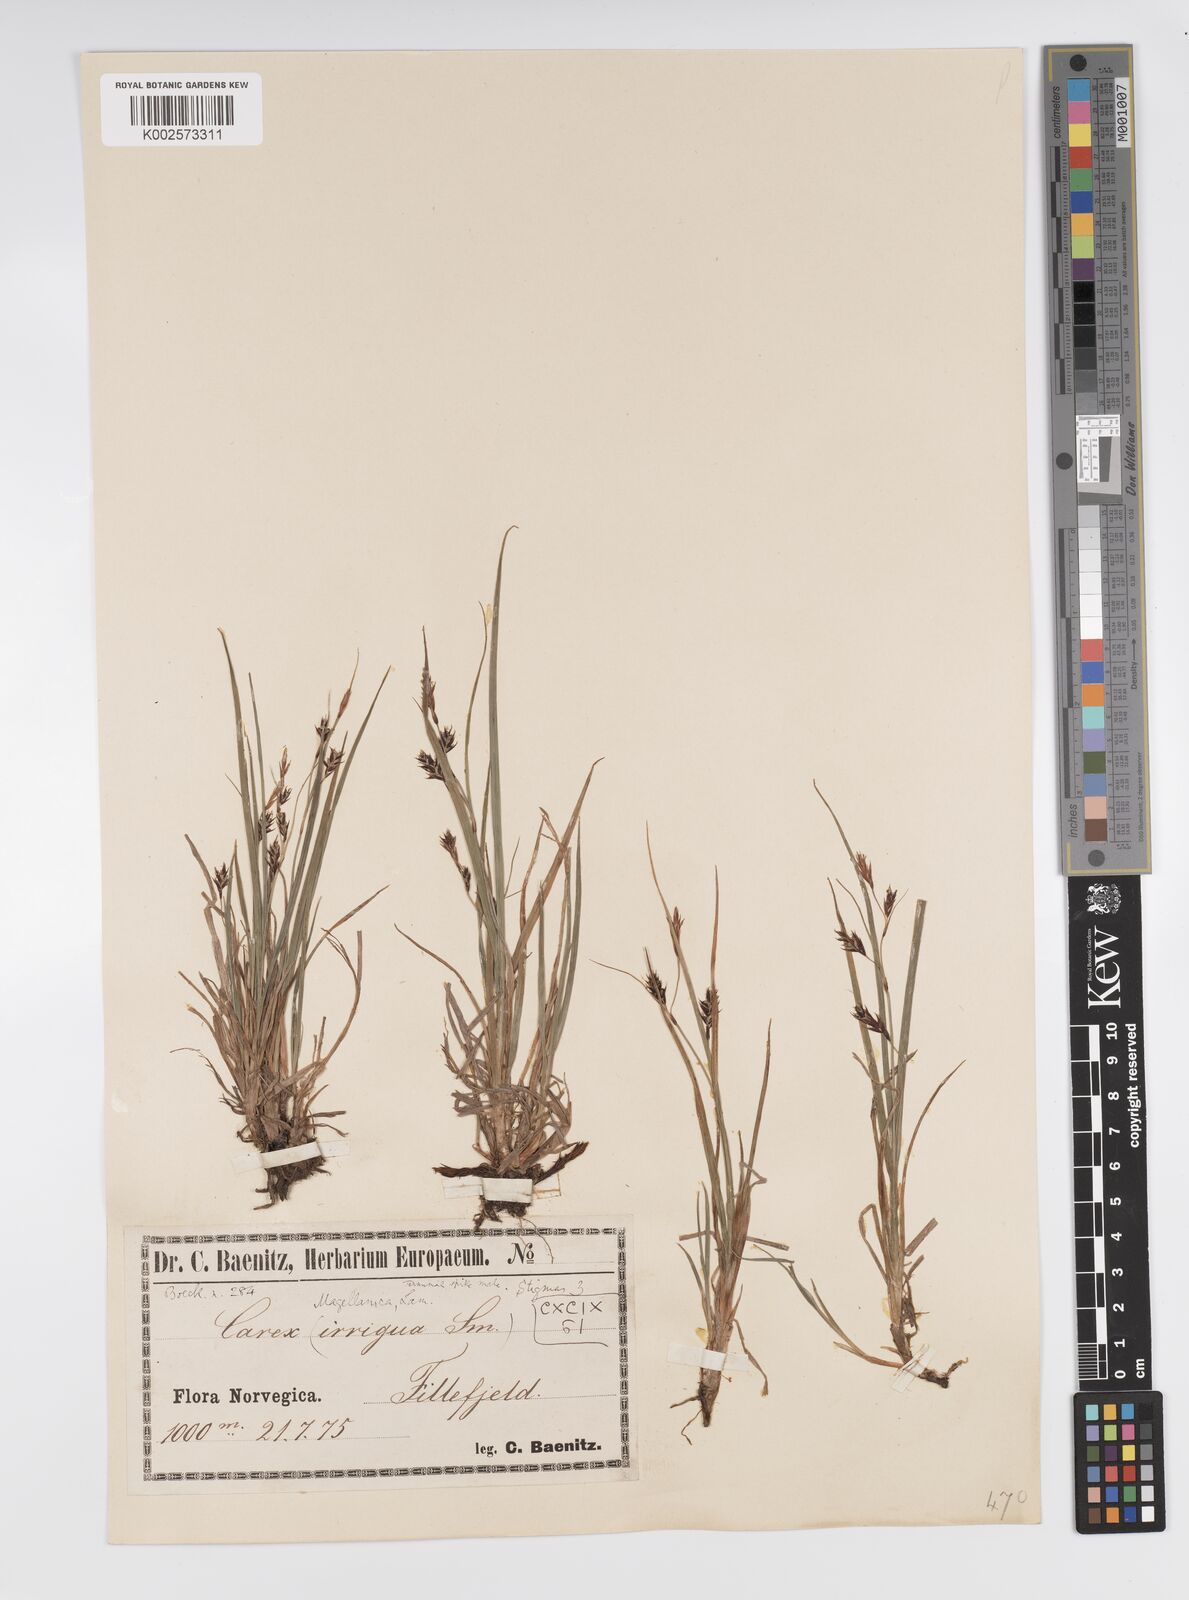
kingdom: Plantae
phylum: Tracheophyta
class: Liliopsida
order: Poales
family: Cyperaceae
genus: Carex
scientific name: Carex magellanica
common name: Bog sedge
